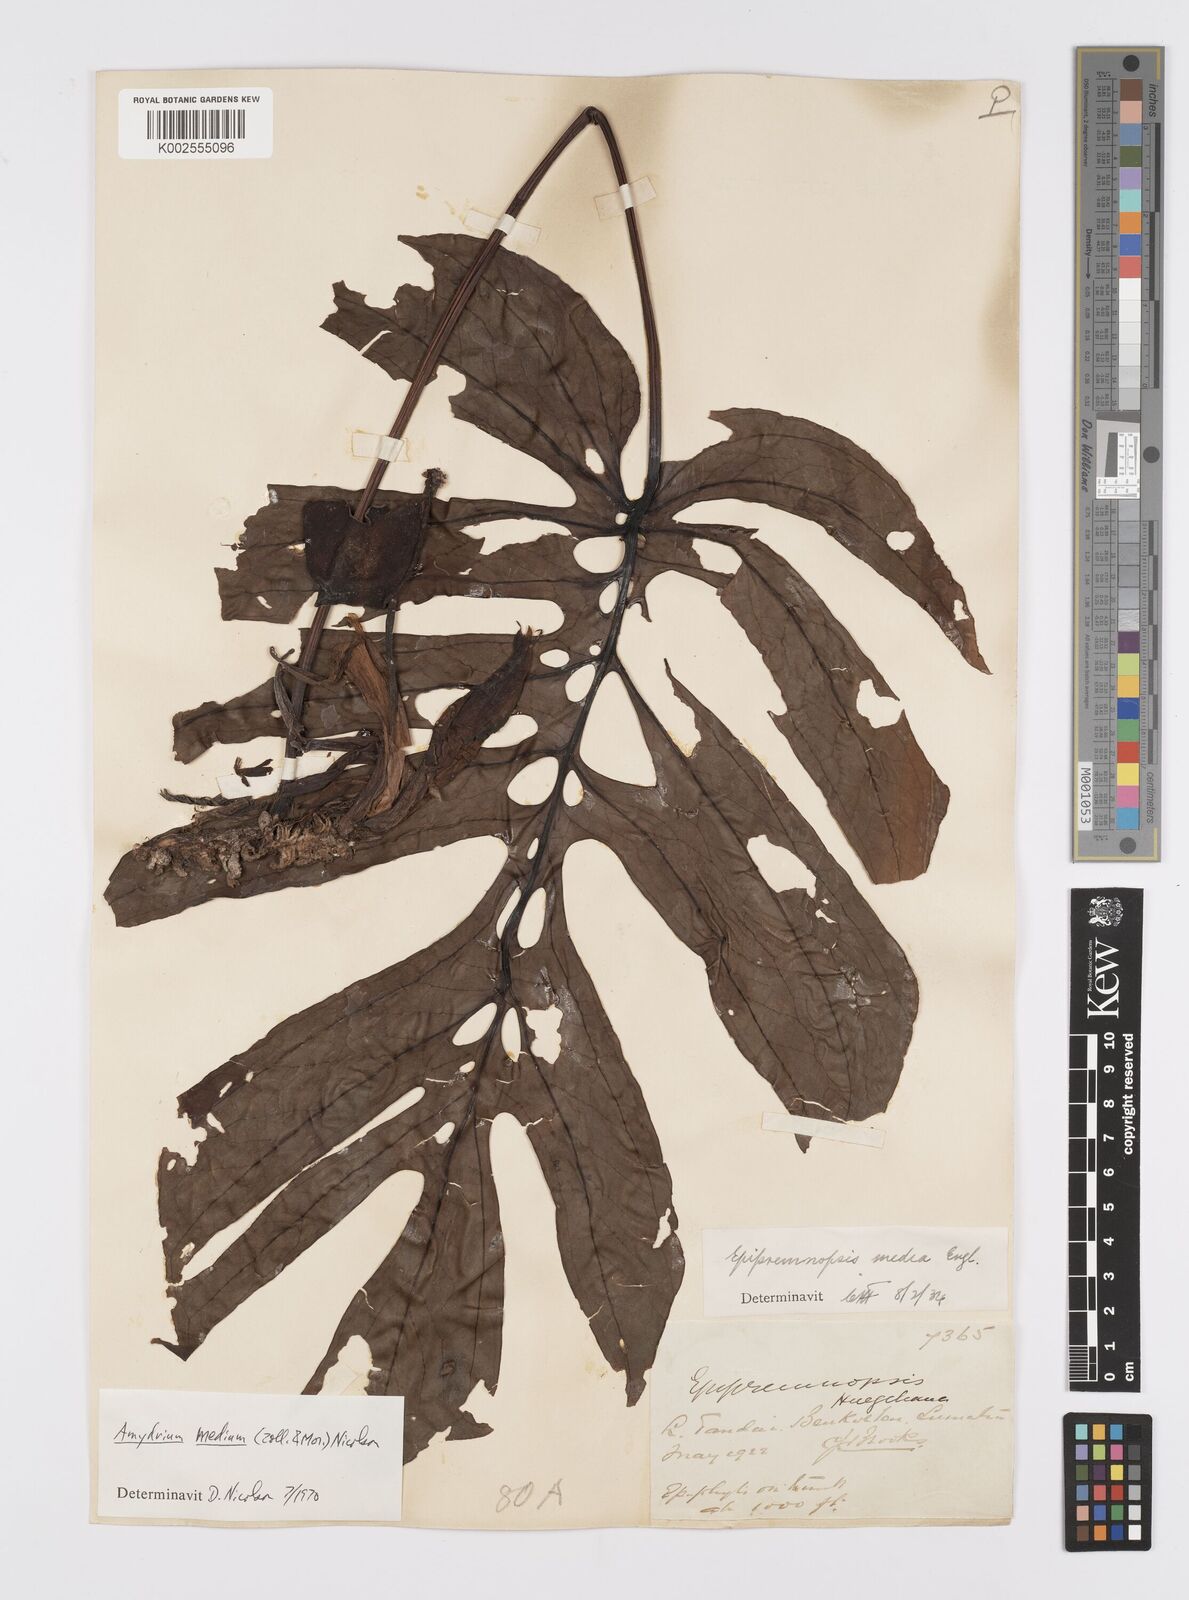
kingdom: Plantae
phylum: Tracheophyta
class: Liliopsida
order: Alismatales
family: Araceae
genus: Amydrium
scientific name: Amydrium medium
